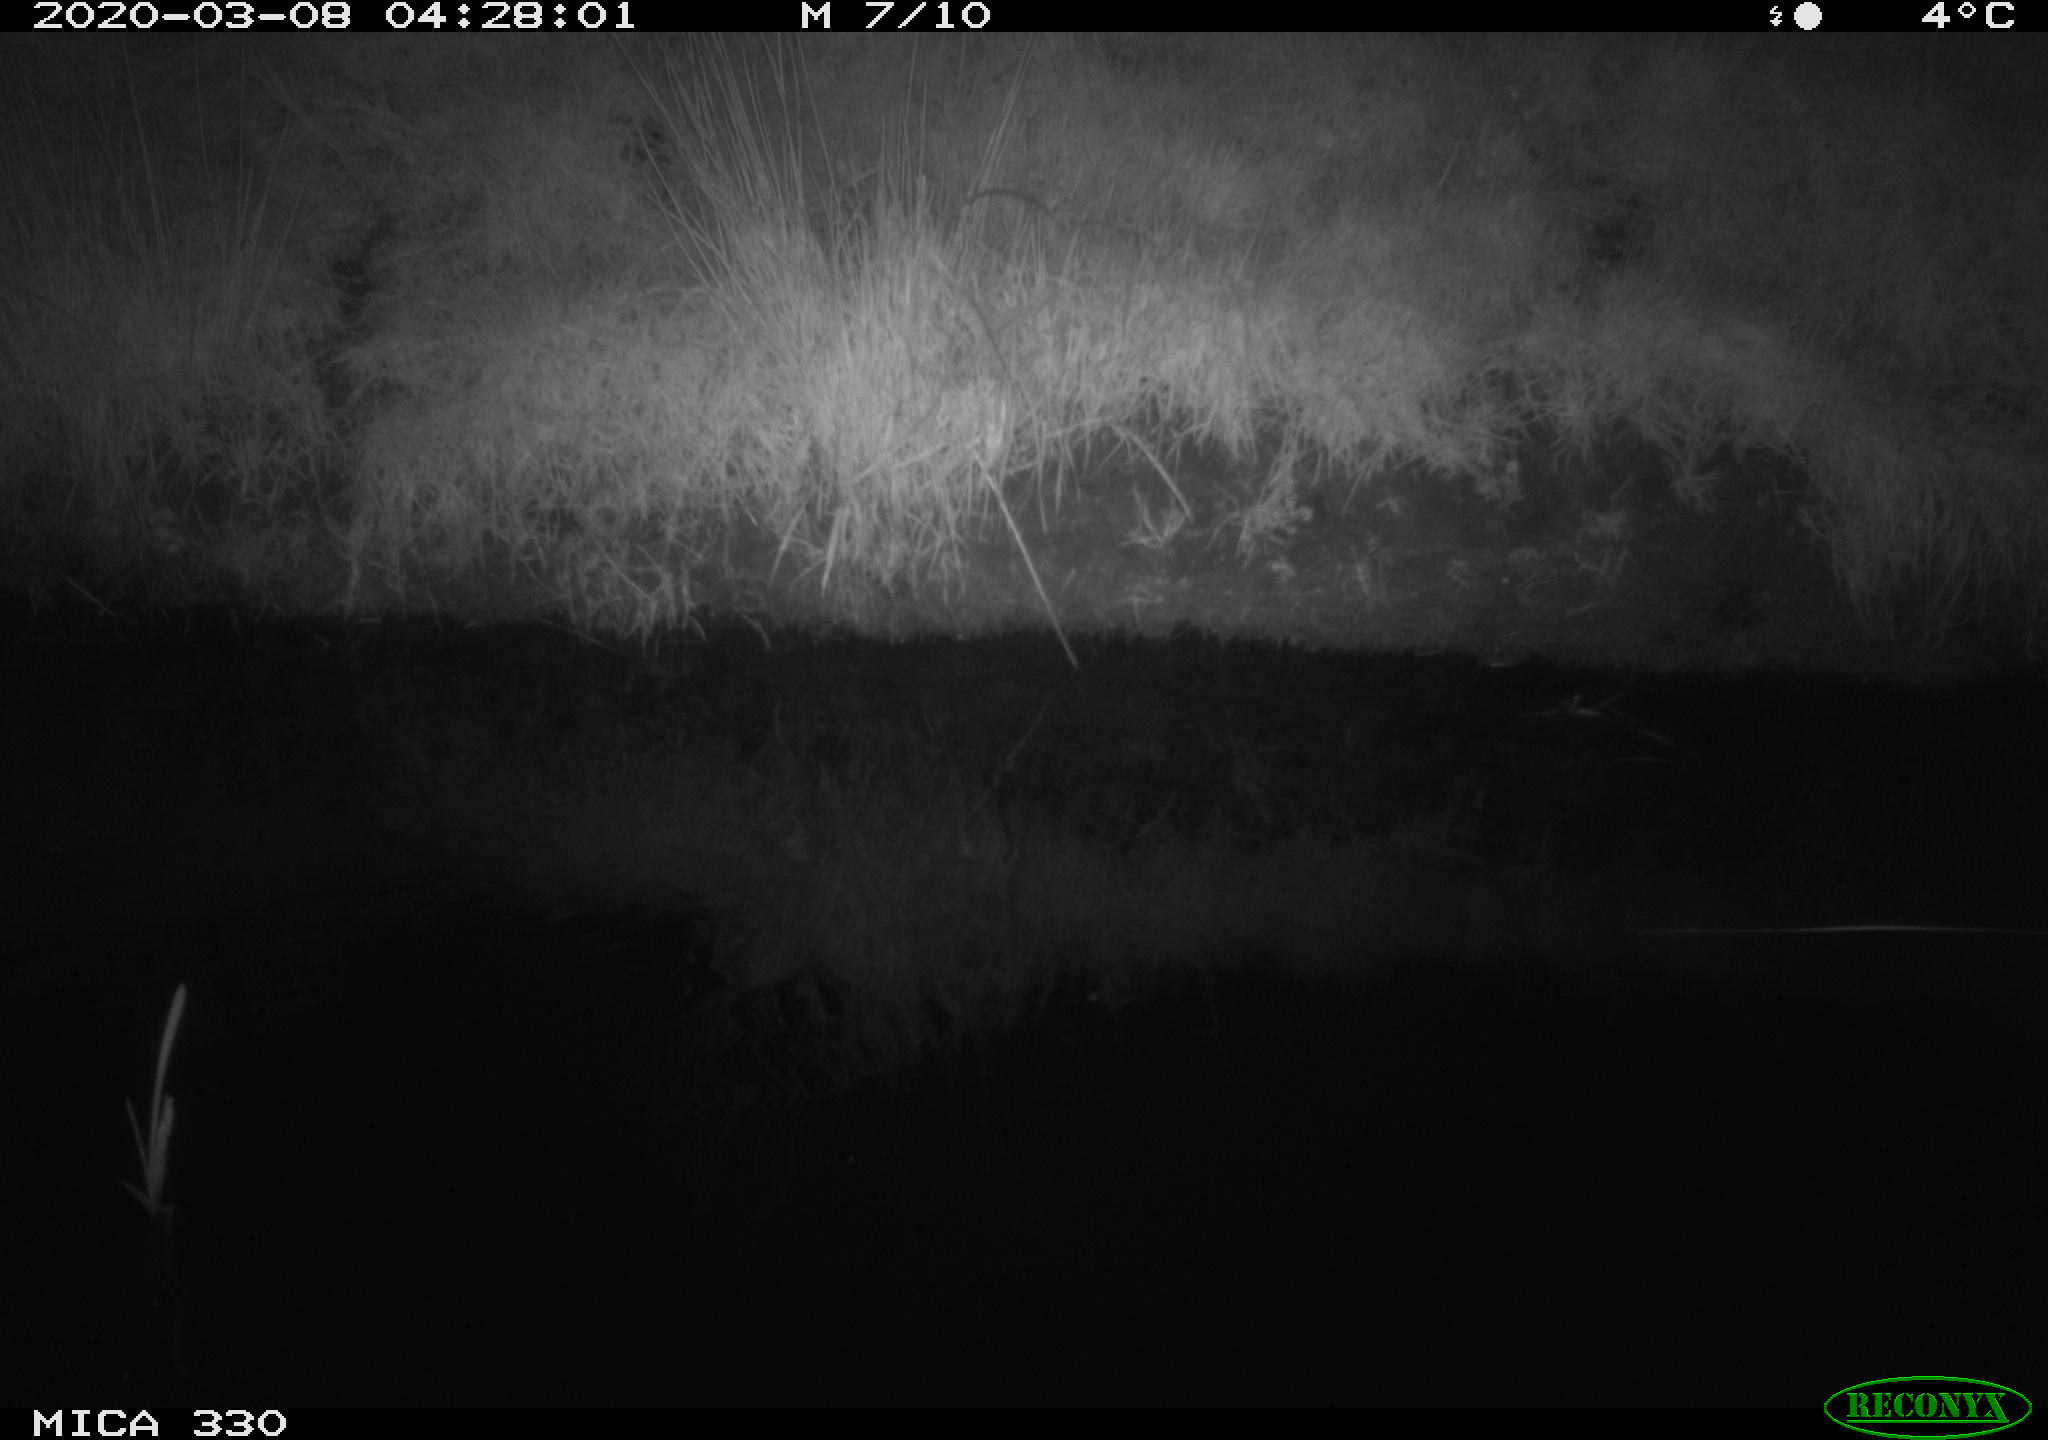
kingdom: Animalia
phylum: Chordata
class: Aves
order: Anseriformes
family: Anatidae
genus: Anas
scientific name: Anas platyrhynchos
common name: Mallard
